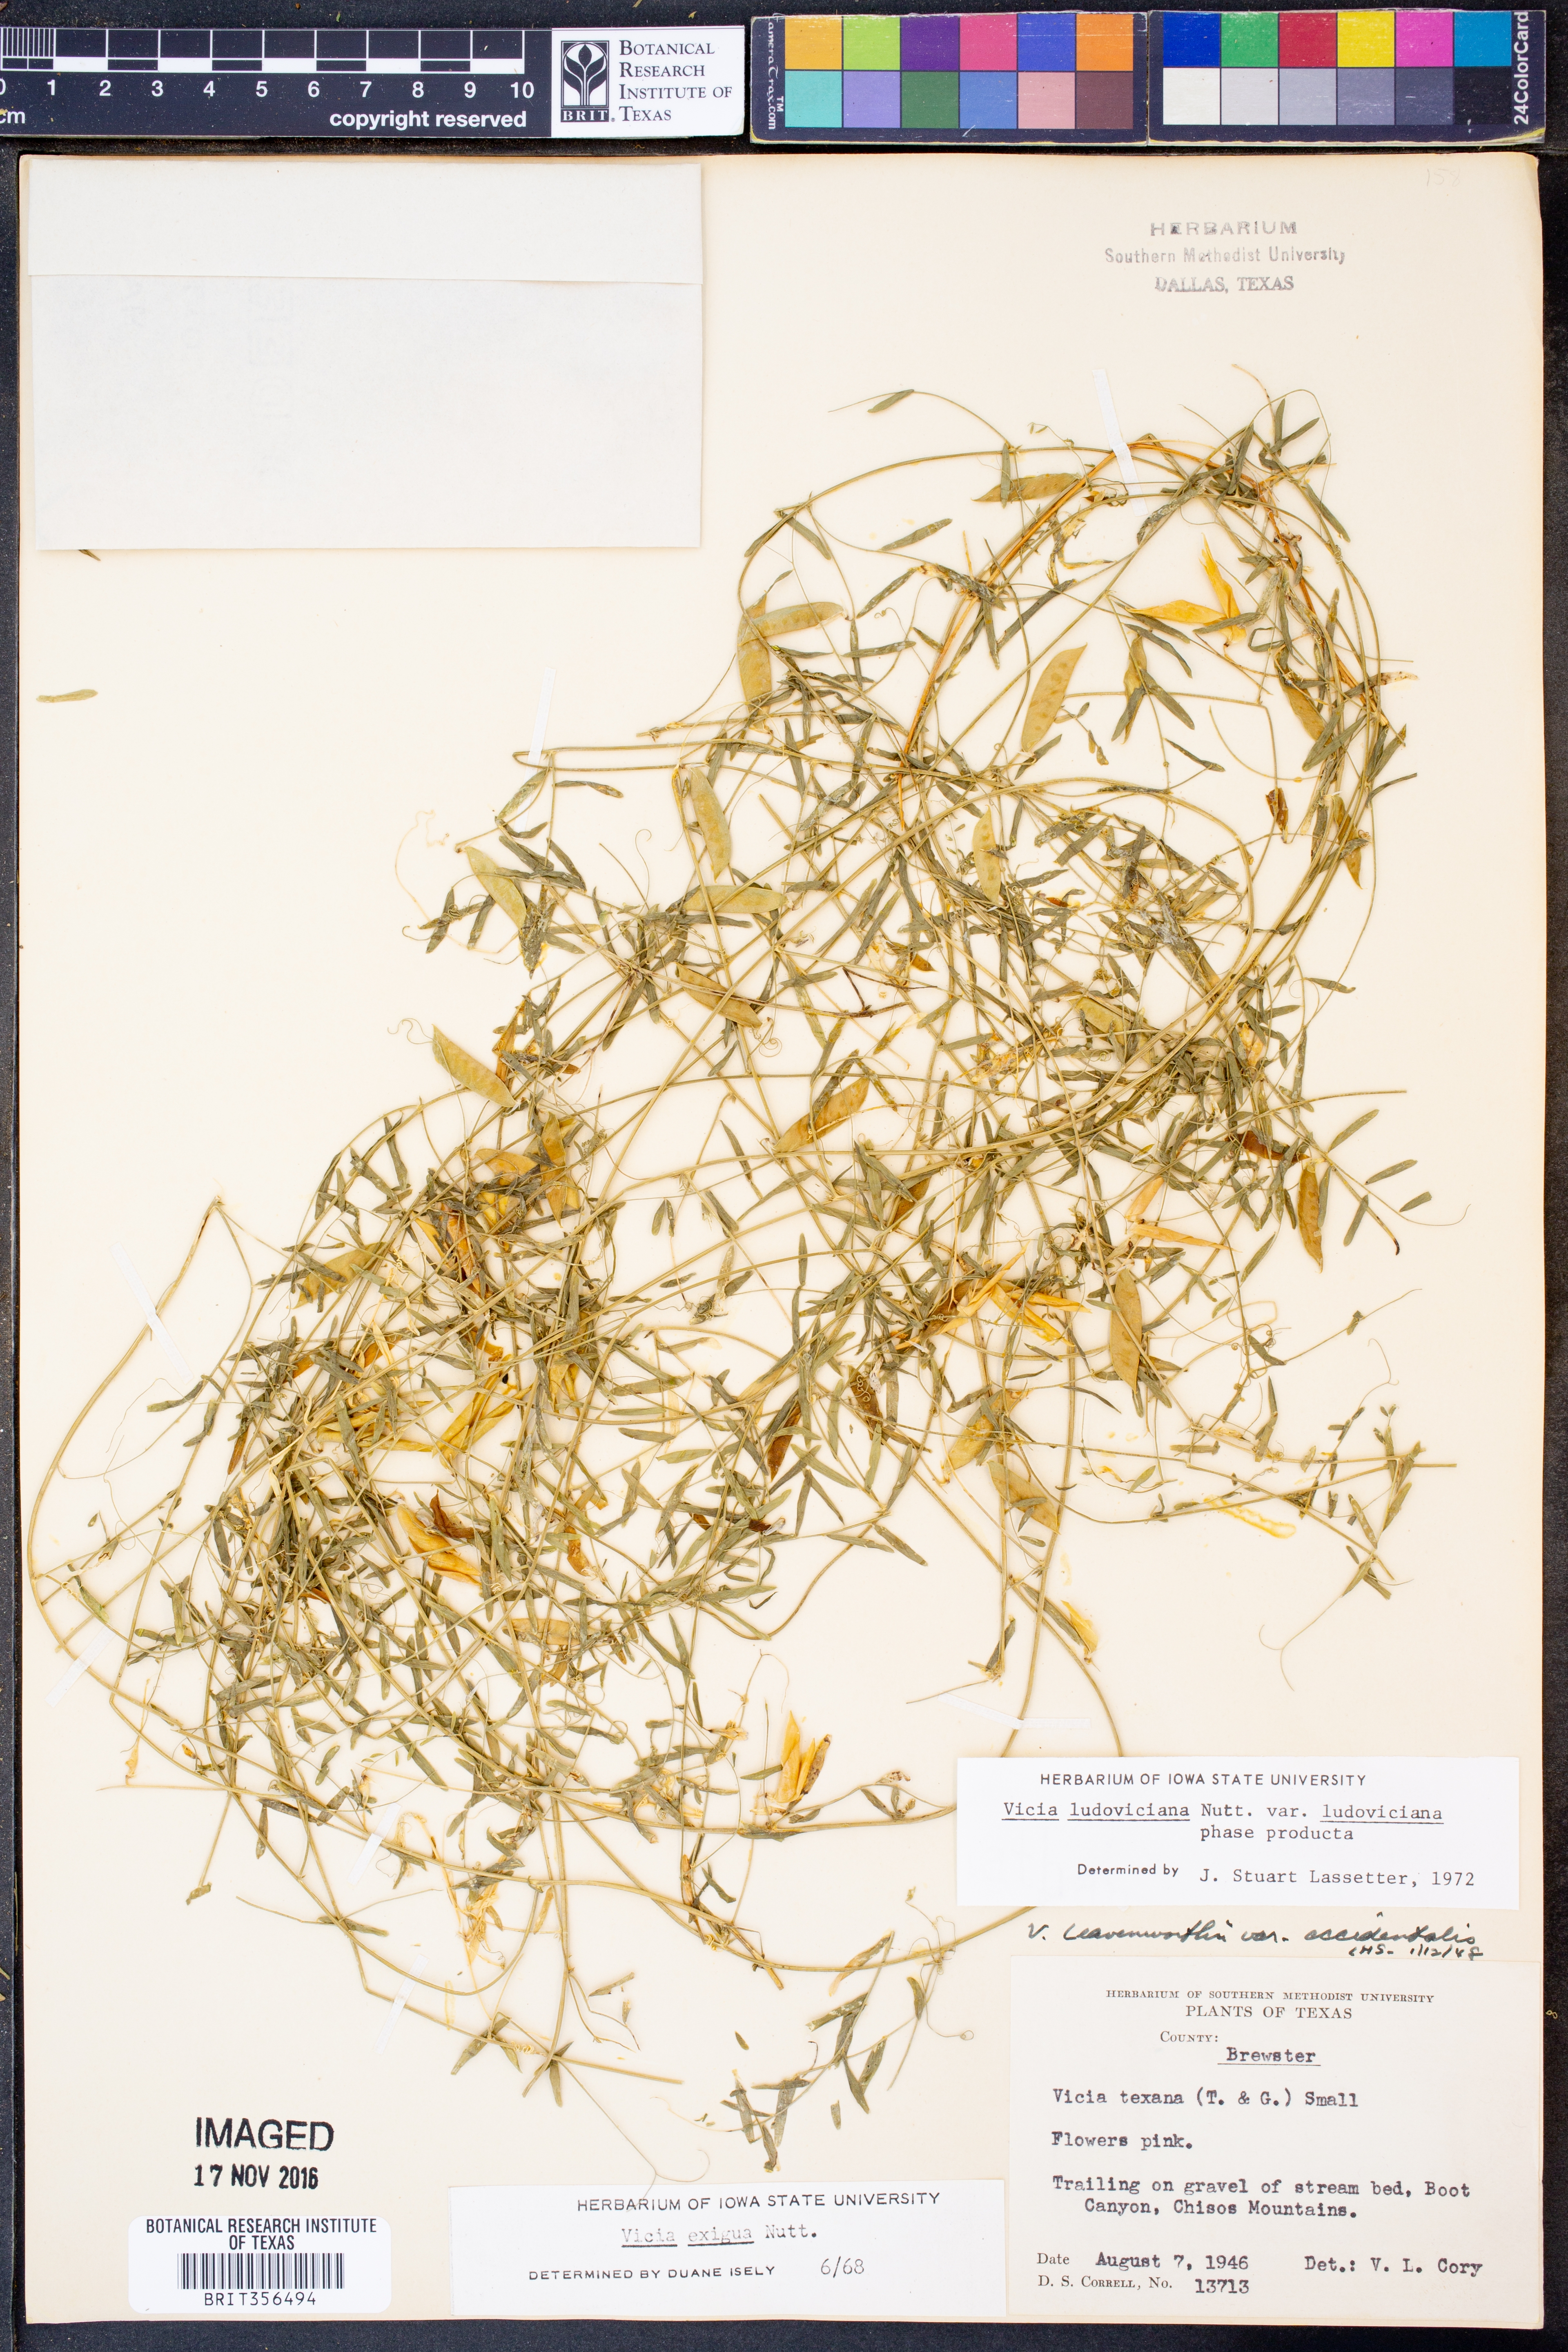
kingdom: Plantae
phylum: Tracheophyta
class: Magnoliopsida
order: Fabales
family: Fabaceae
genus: Vicia
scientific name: Vicia ludoviciana
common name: Louisiana vetch
